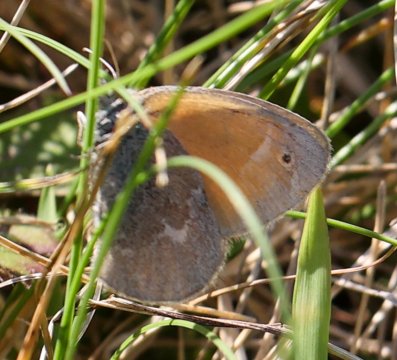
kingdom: Animalia
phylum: Arthropoda
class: Insecta
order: Lepidoptera
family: Nymphalidae
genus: Coenonympha
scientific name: Coenonympha tullia
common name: Large Heath
